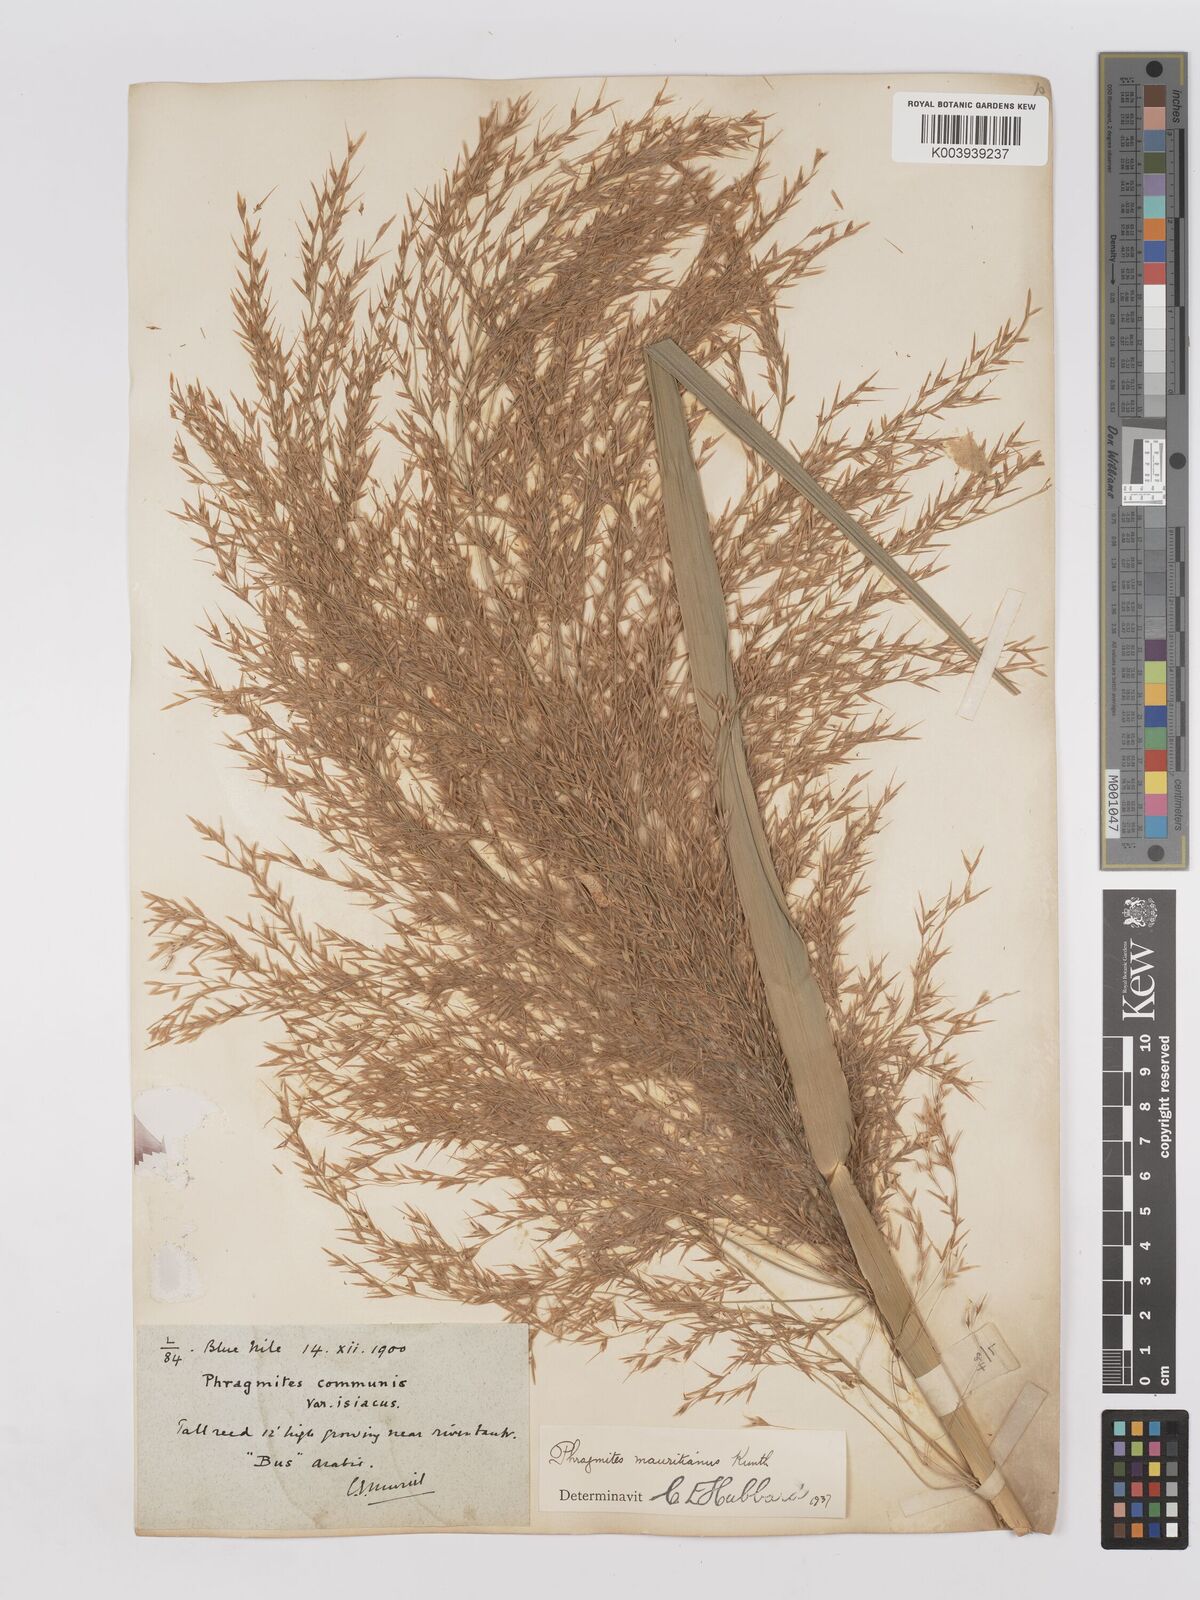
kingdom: Plantae
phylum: Tracheophyta
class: Liliopsida
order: Poales
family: Poaceae
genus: Phragmites
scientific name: Phragmites karka
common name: Tropical reed
